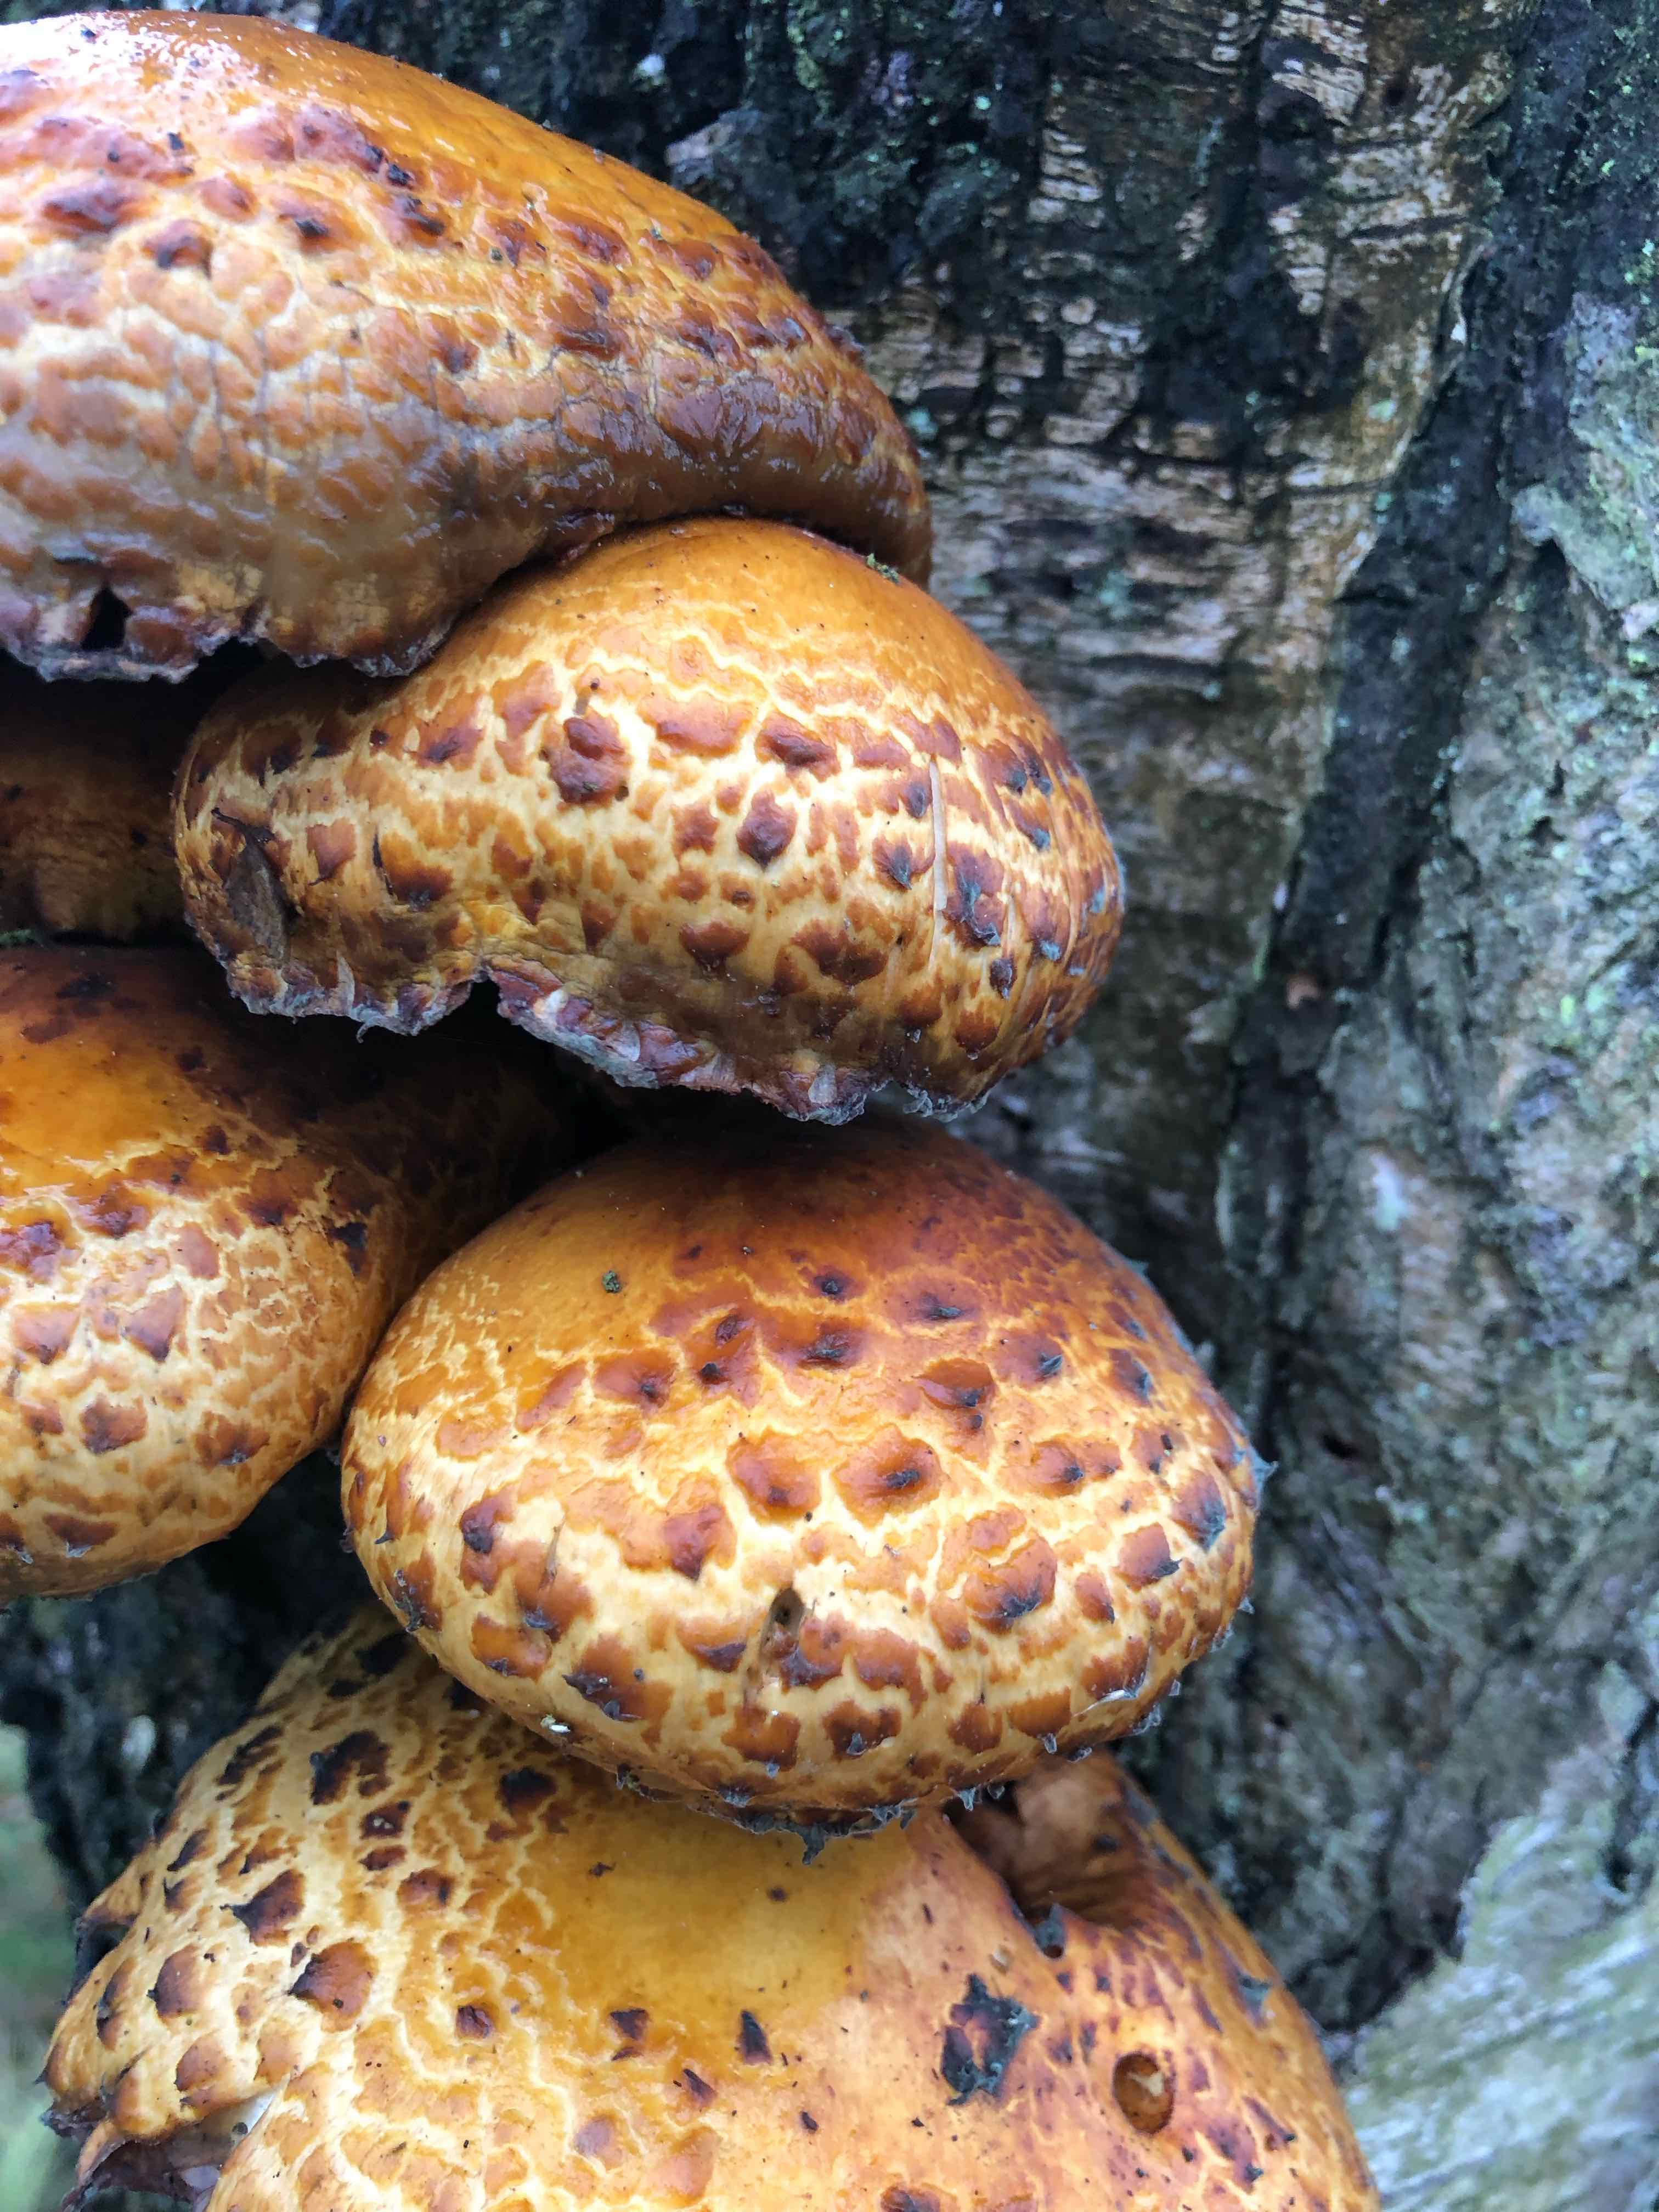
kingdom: Fungi
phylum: Basidiomycota
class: Agaricomycetes
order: Agaricales
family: Strophariaceae
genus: Pholiota
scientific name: Pholiota
